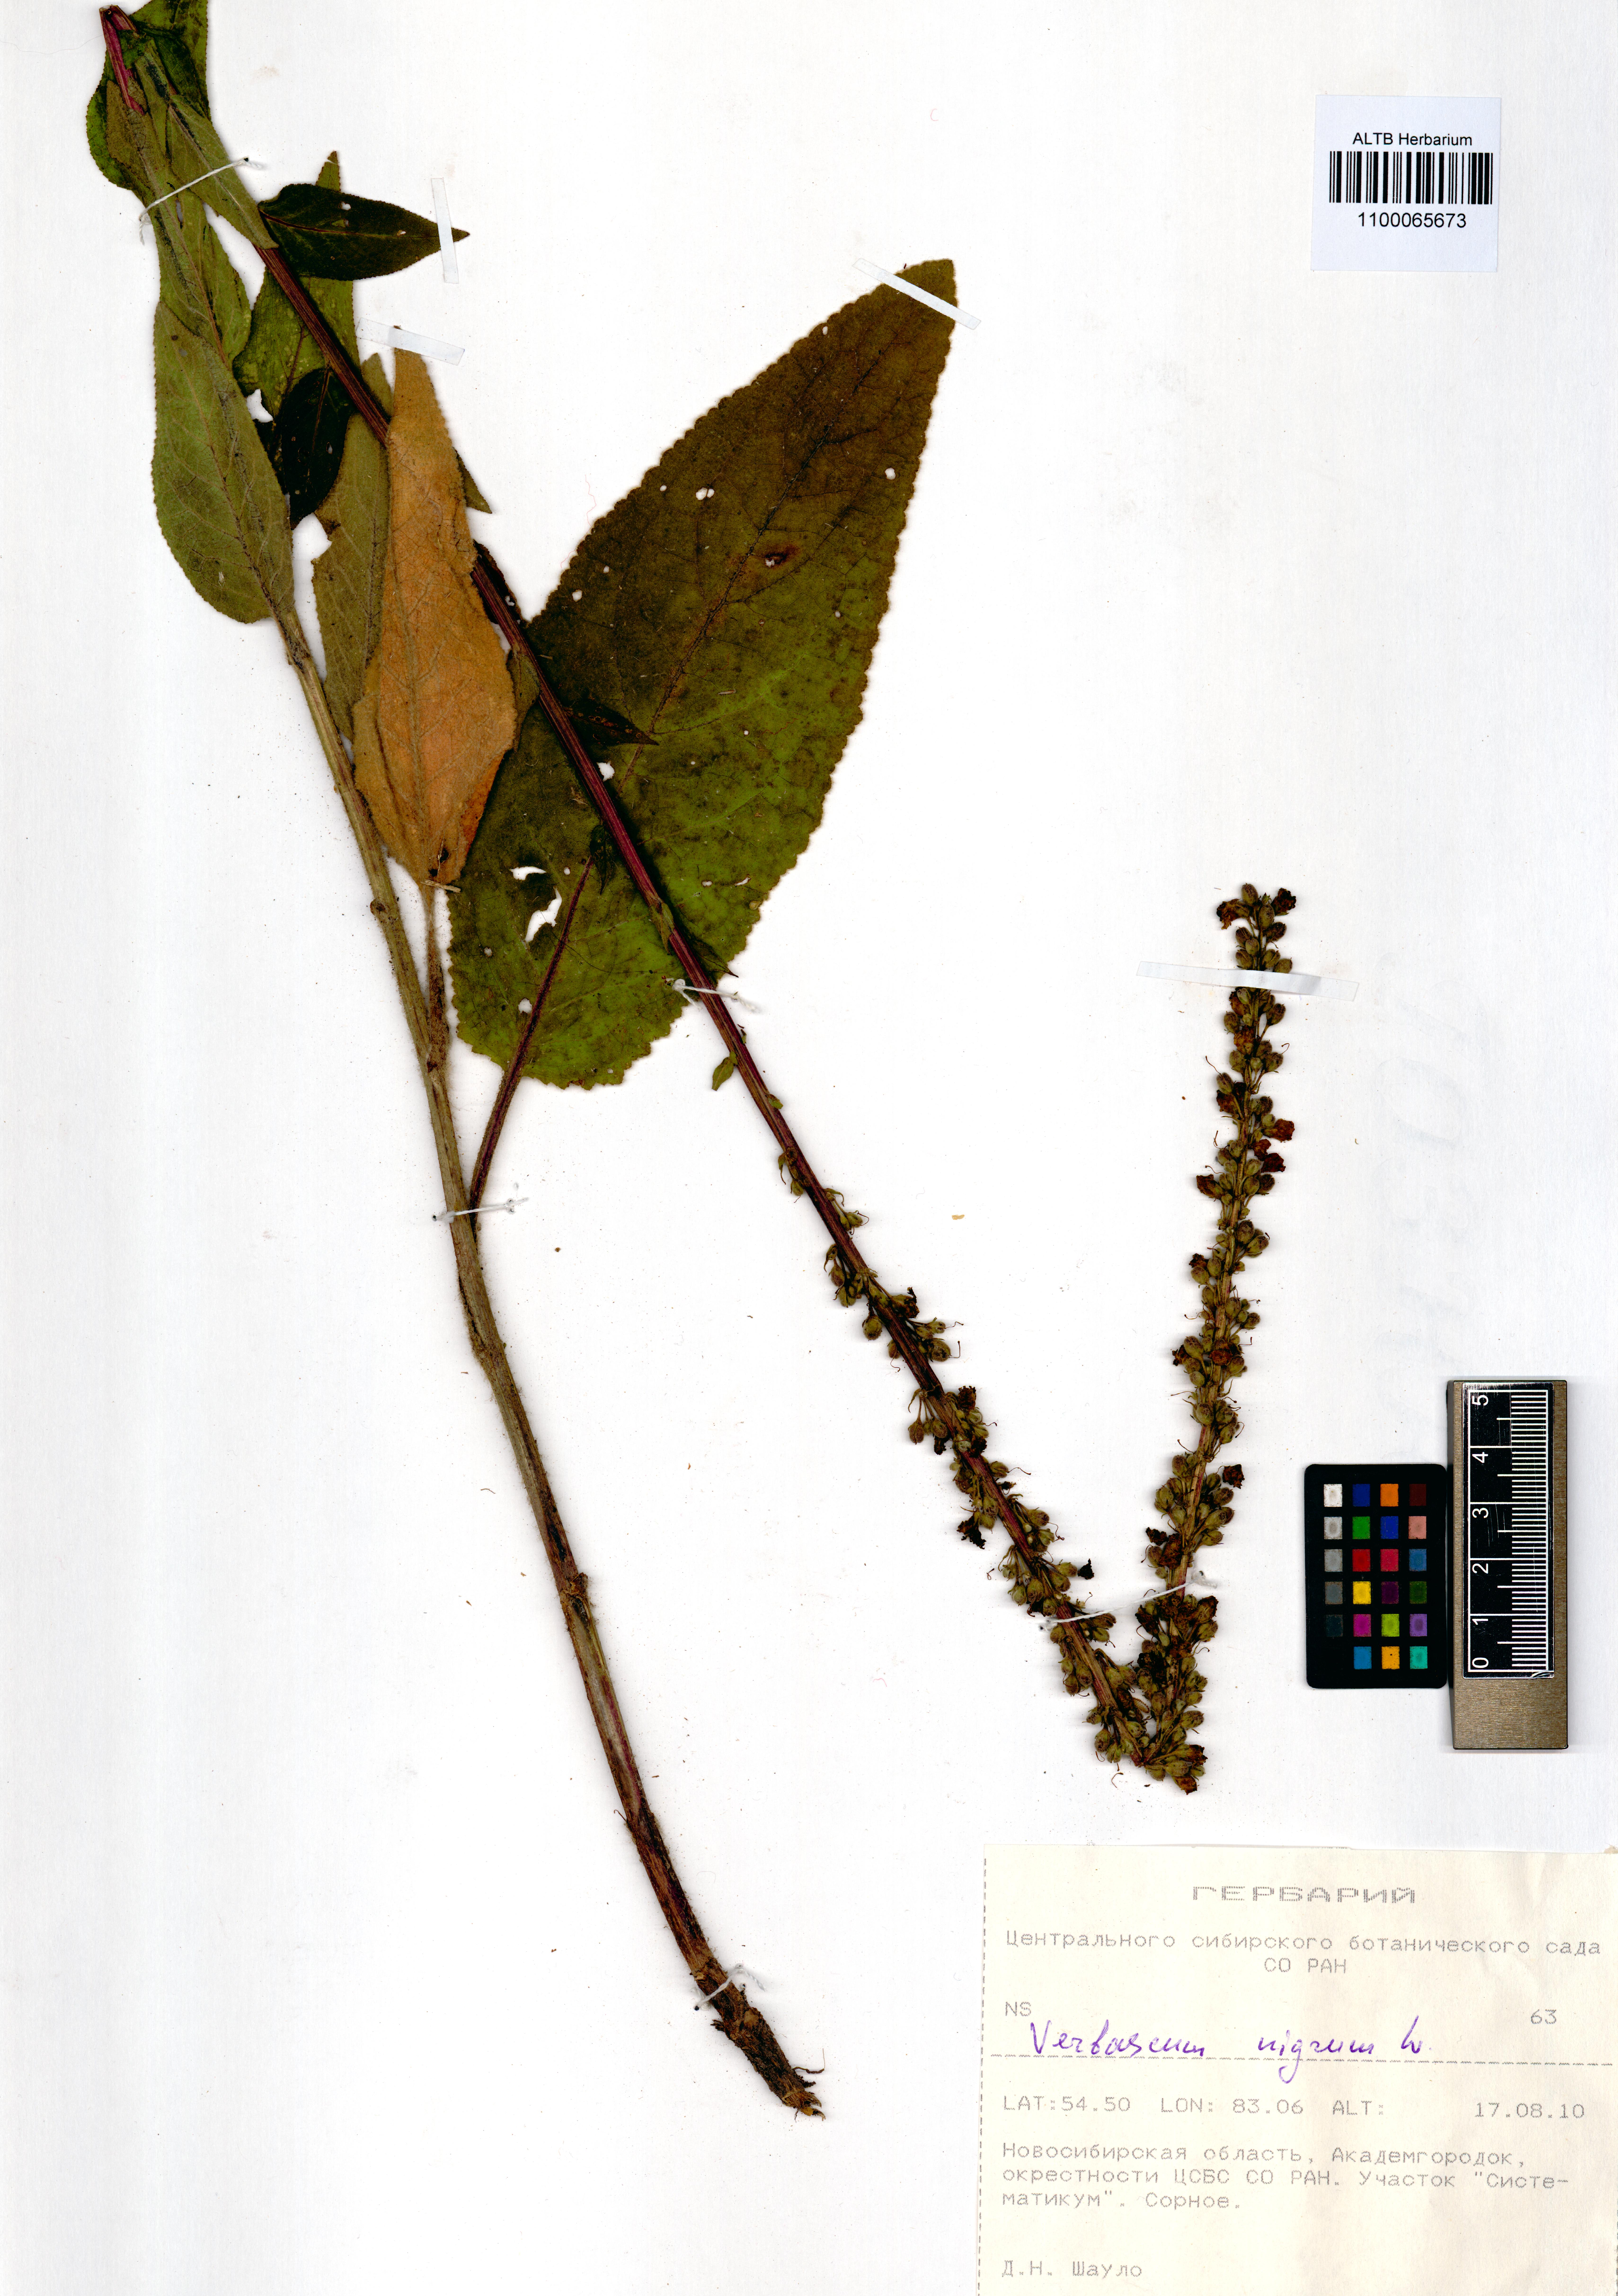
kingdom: Plantae
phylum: Tracheophyta
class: Magnoliopsida
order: Lamiales
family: Scrophulariaceae
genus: Verbascum
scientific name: Verbascum nigrum
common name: Dark mullein
